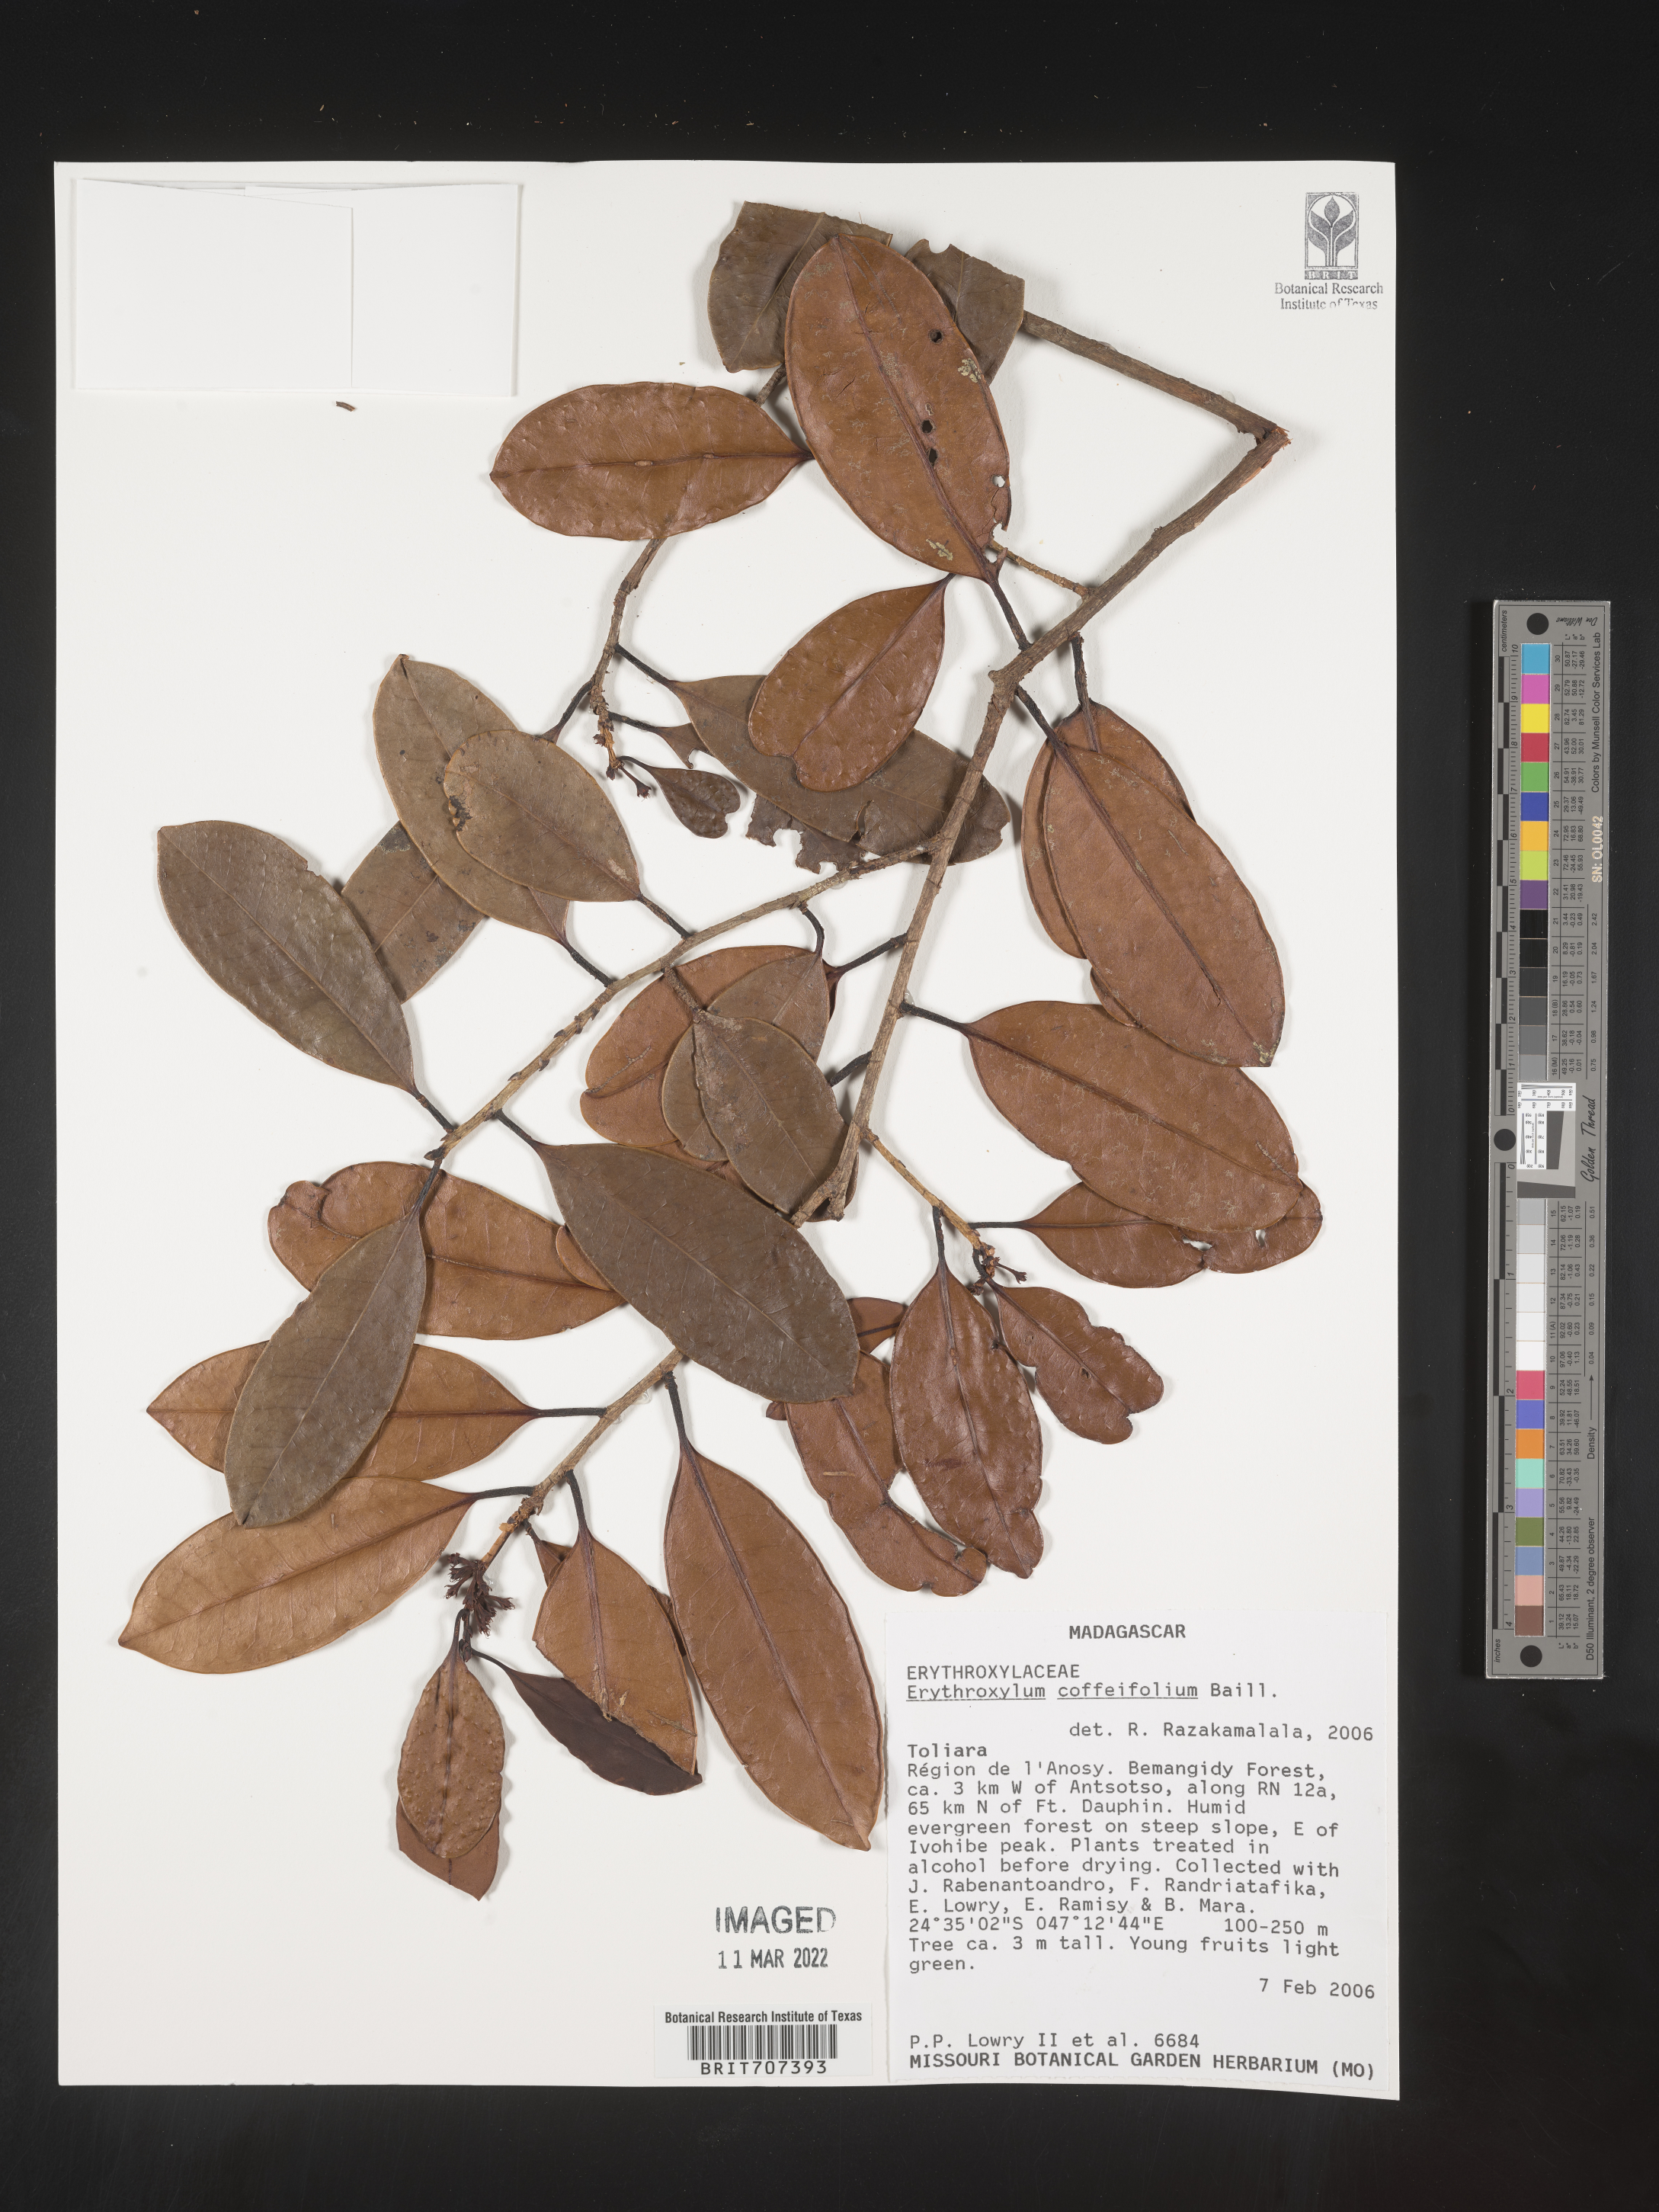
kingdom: Plantae
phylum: Tracheophyta
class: Magnoliopsida
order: Malpighiales
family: Erythroxylaceae
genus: Erythroxylum
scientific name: Erythroxylum
